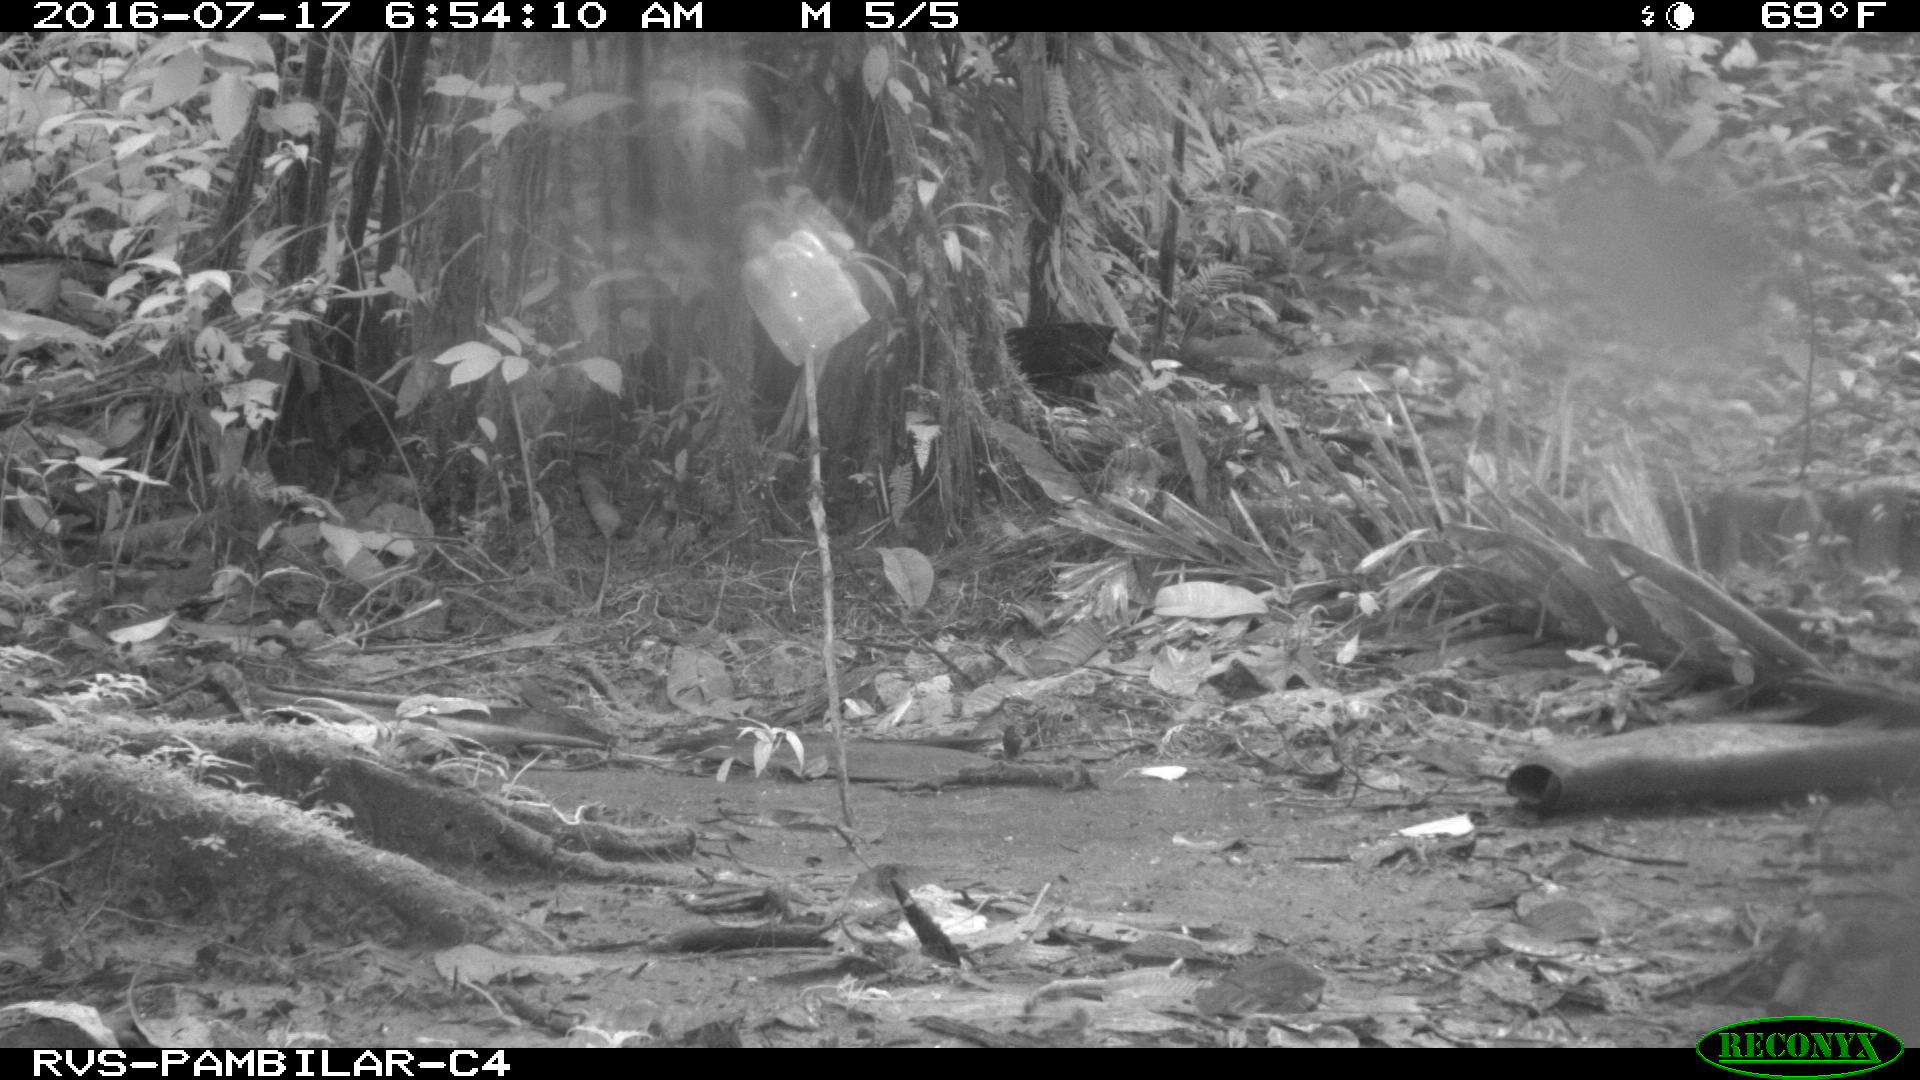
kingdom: Animalia
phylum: Chordata
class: Mammalia
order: Rodentia
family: Dasyproctidae
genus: Dasyprocta
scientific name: Dasyprocta punctata
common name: Central american agouti
